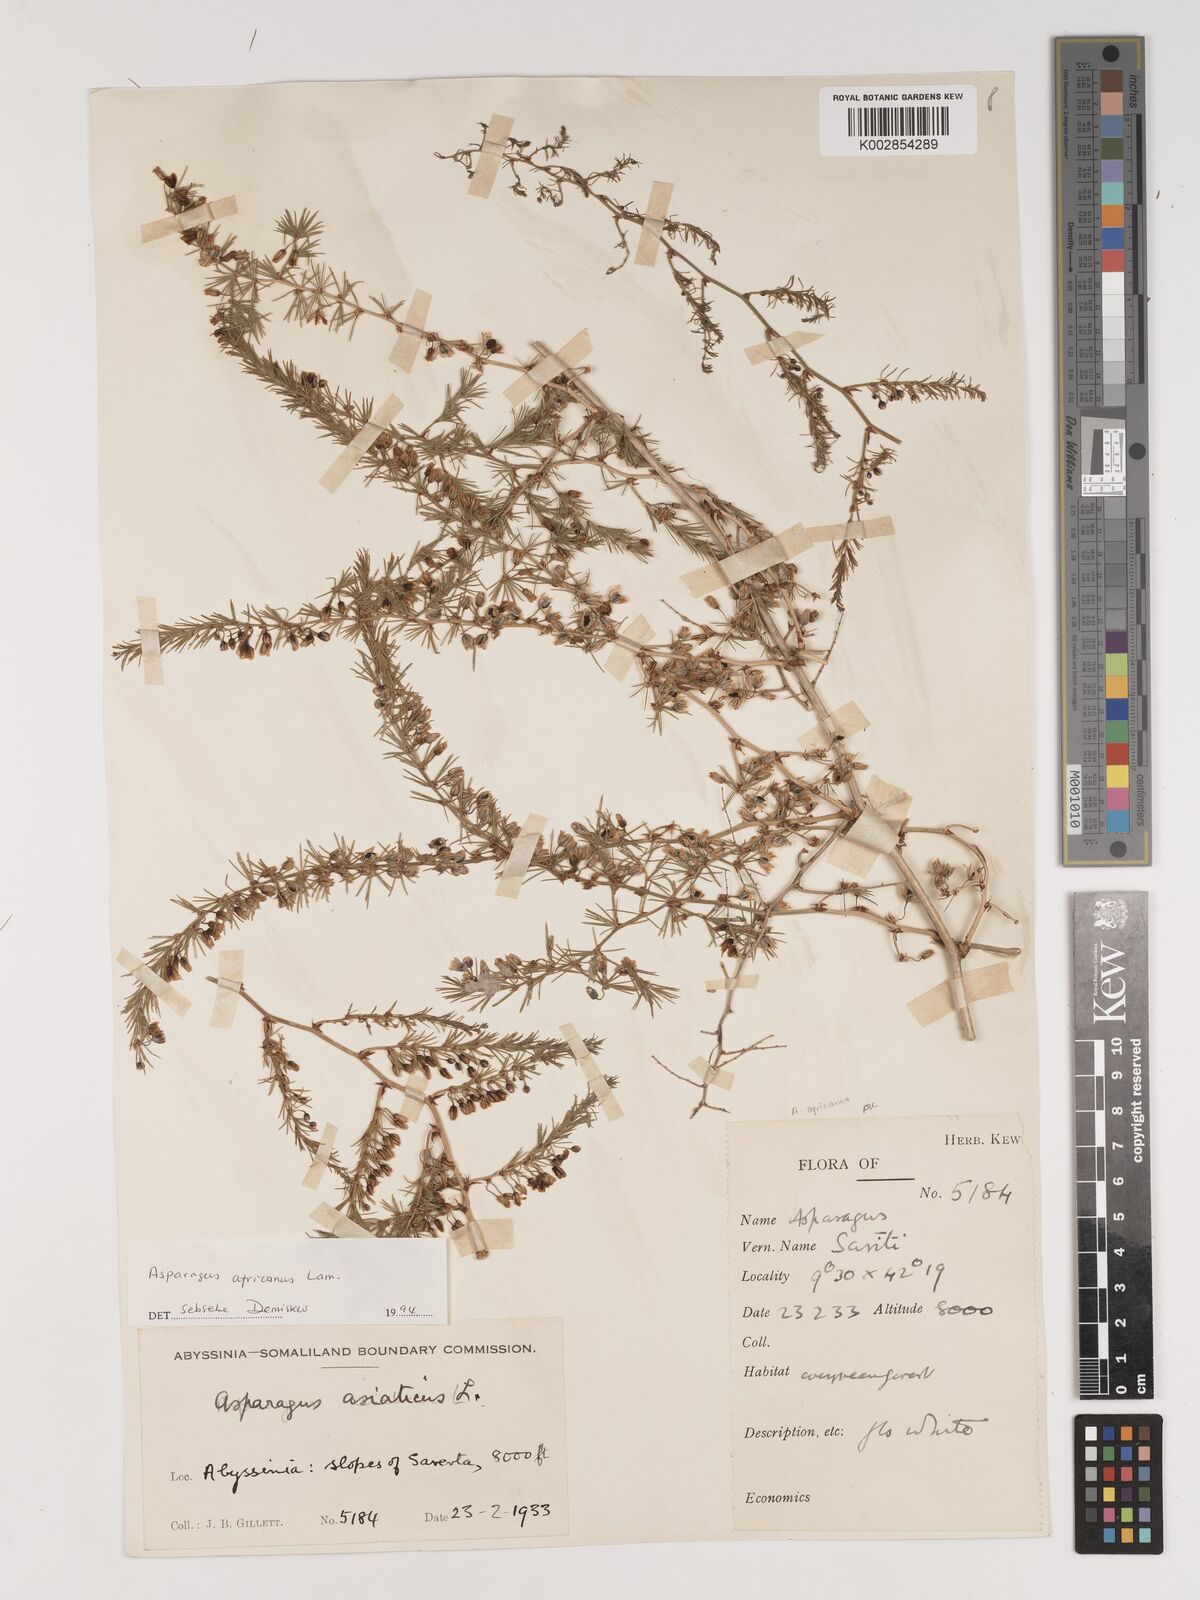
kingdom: Plantae
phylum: Tracheophyta
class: Liliopsida
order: Asparagales
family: Asparagaceae
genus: Asparagus
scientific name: Asparagus africanus
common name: Asparagus-fern
